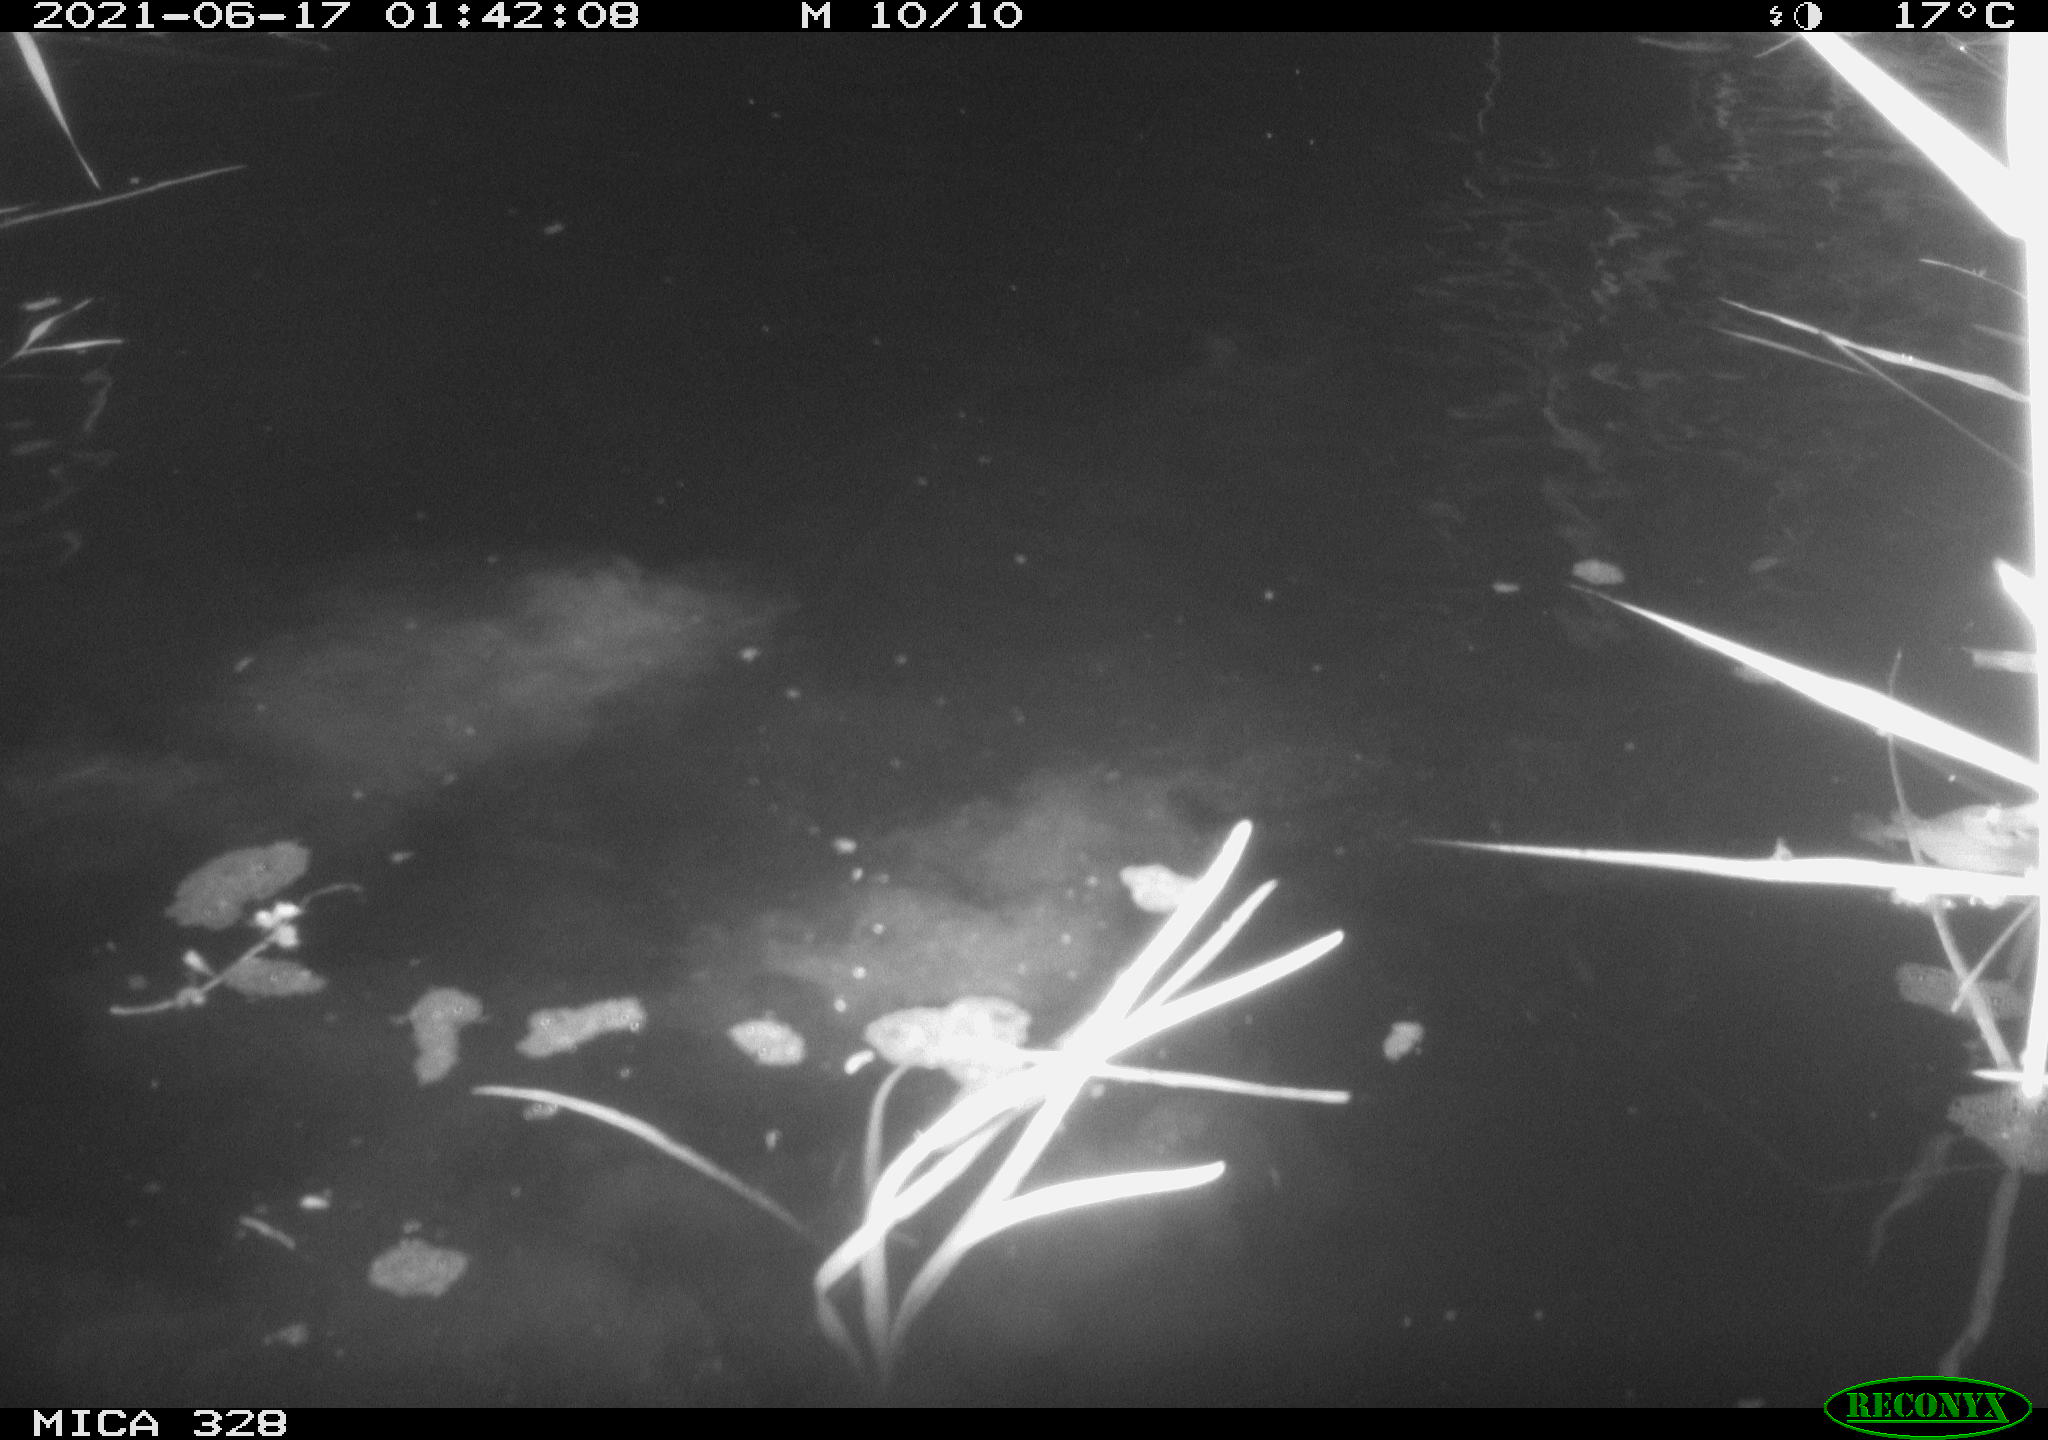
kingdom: Animalia
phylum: Chordata
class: Mammalia
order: Rodentia
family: Cricetidae
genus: Ondatra
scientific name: Ondatra zibethicus
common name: Muskrat
